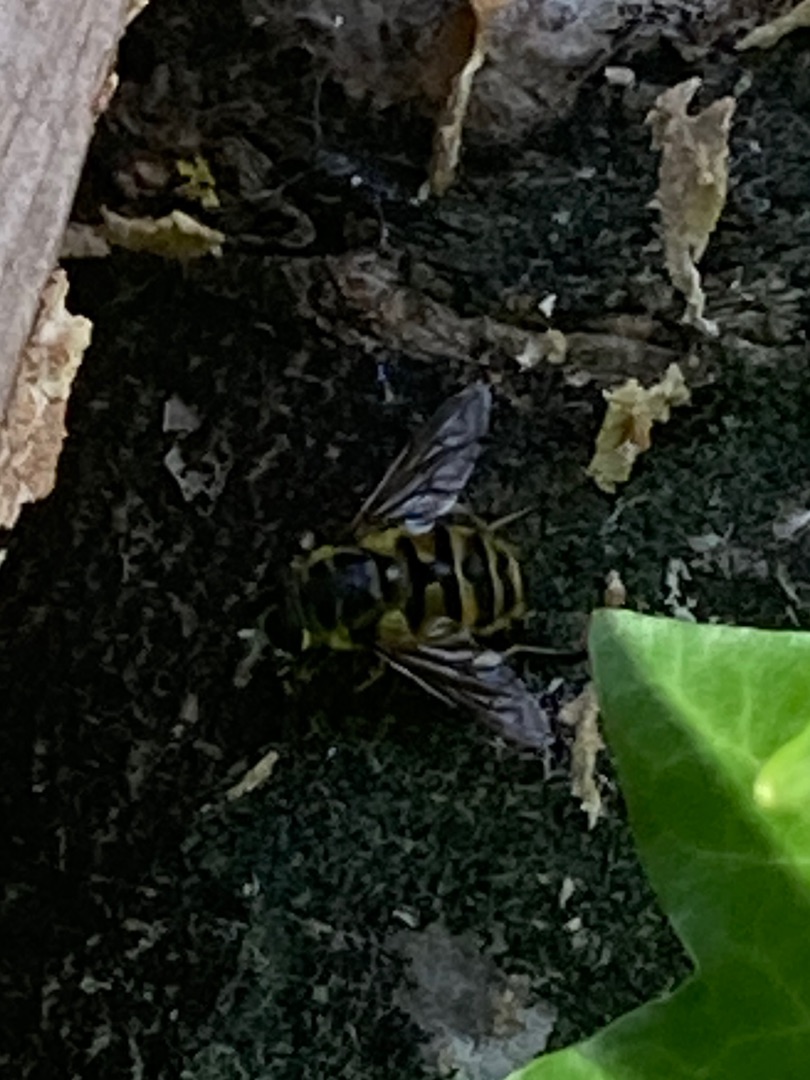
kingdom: Animalia
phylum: Arthropoda
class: Insecta
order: Diptera
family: Syrphidae
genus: Myathropa
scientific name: Myathropa florea
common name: Dødningehoved-svirreflue
